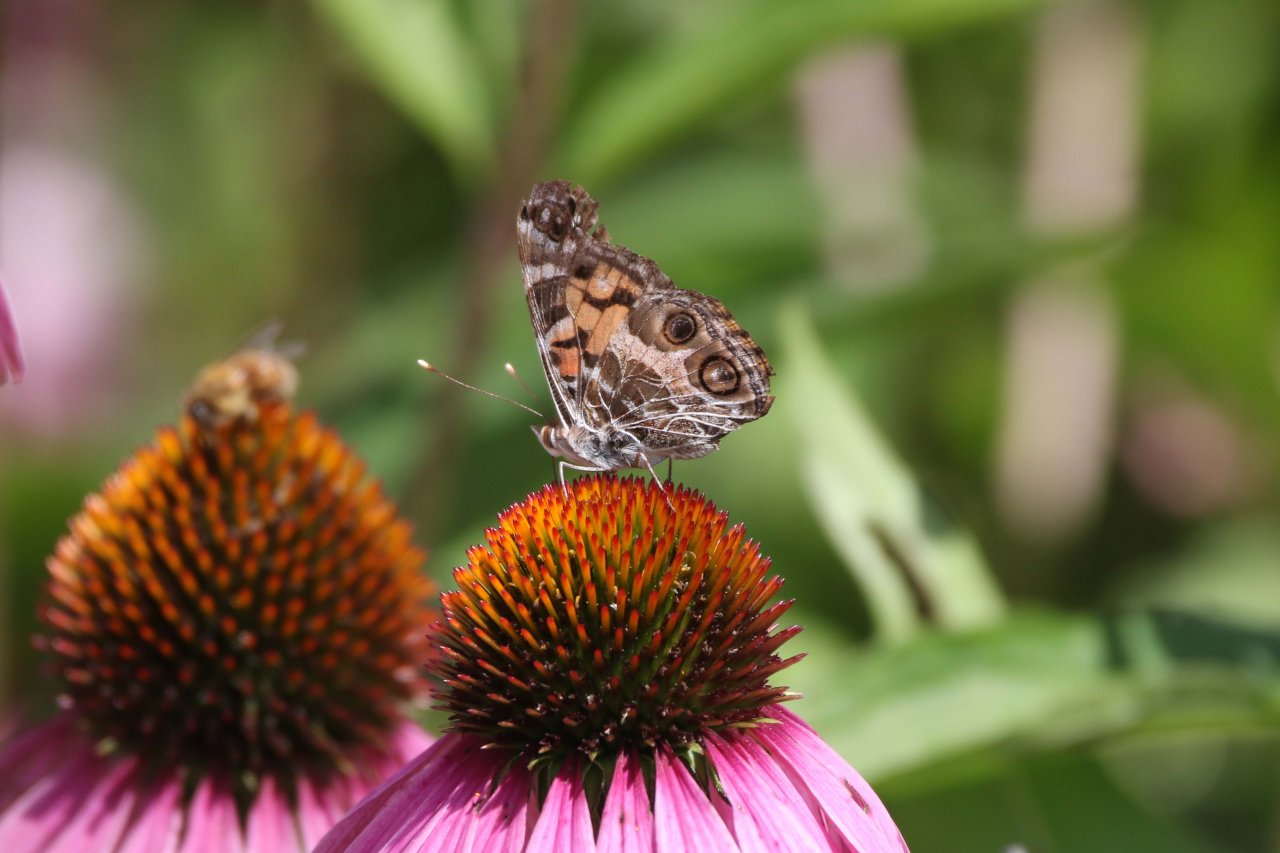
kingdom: Animalia
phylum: Arthropoda
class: Insecta
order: Lepidoptera
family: Nymphalidae
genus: Vanessa
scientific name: Vanessa virginiensis
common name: American Lady
